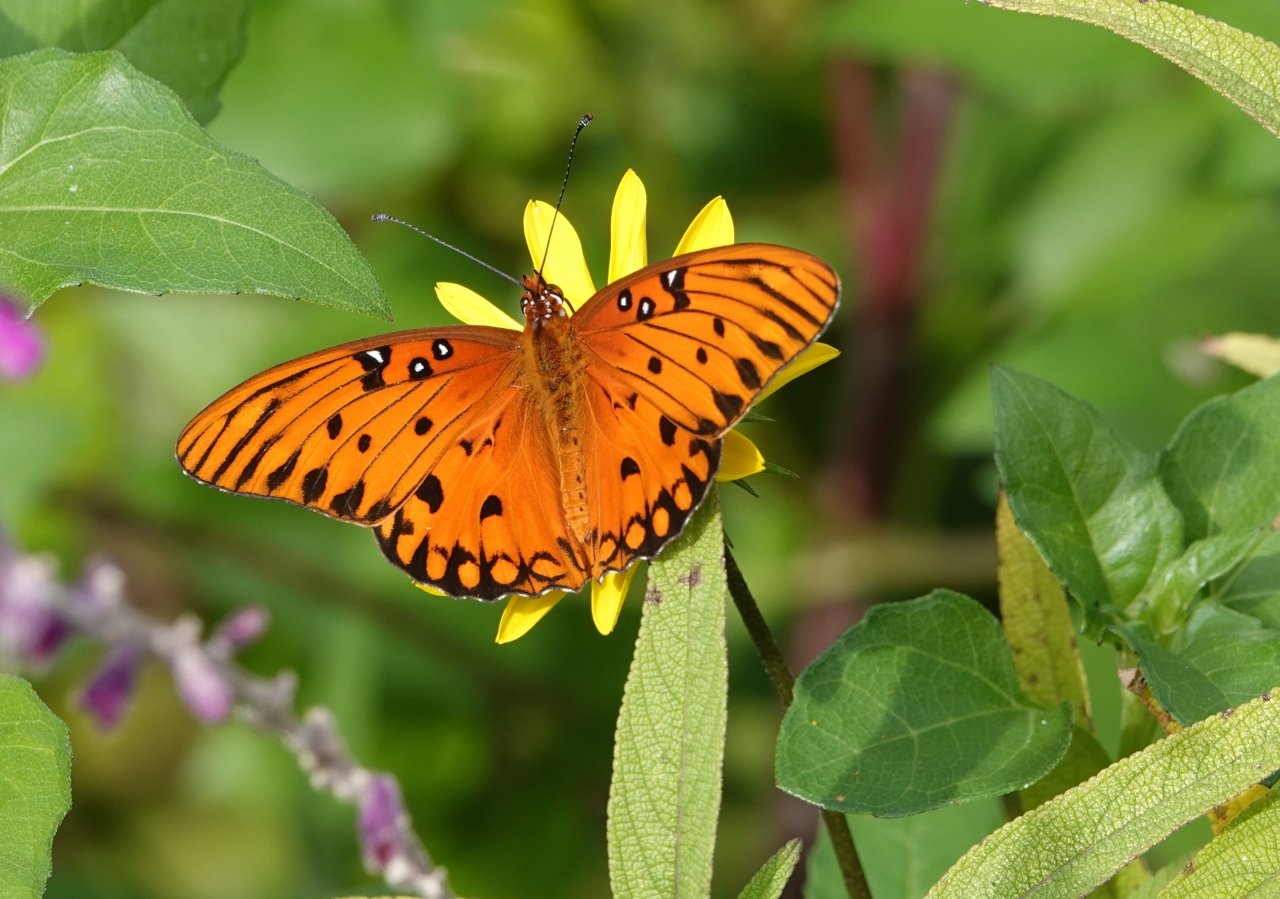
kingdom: Animalia
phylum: Arthropoda
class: Insecta
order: Lepidoptera
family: Nymphalidae
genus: Dione
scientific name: Dione vanillae
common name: Gulf Fritillary
